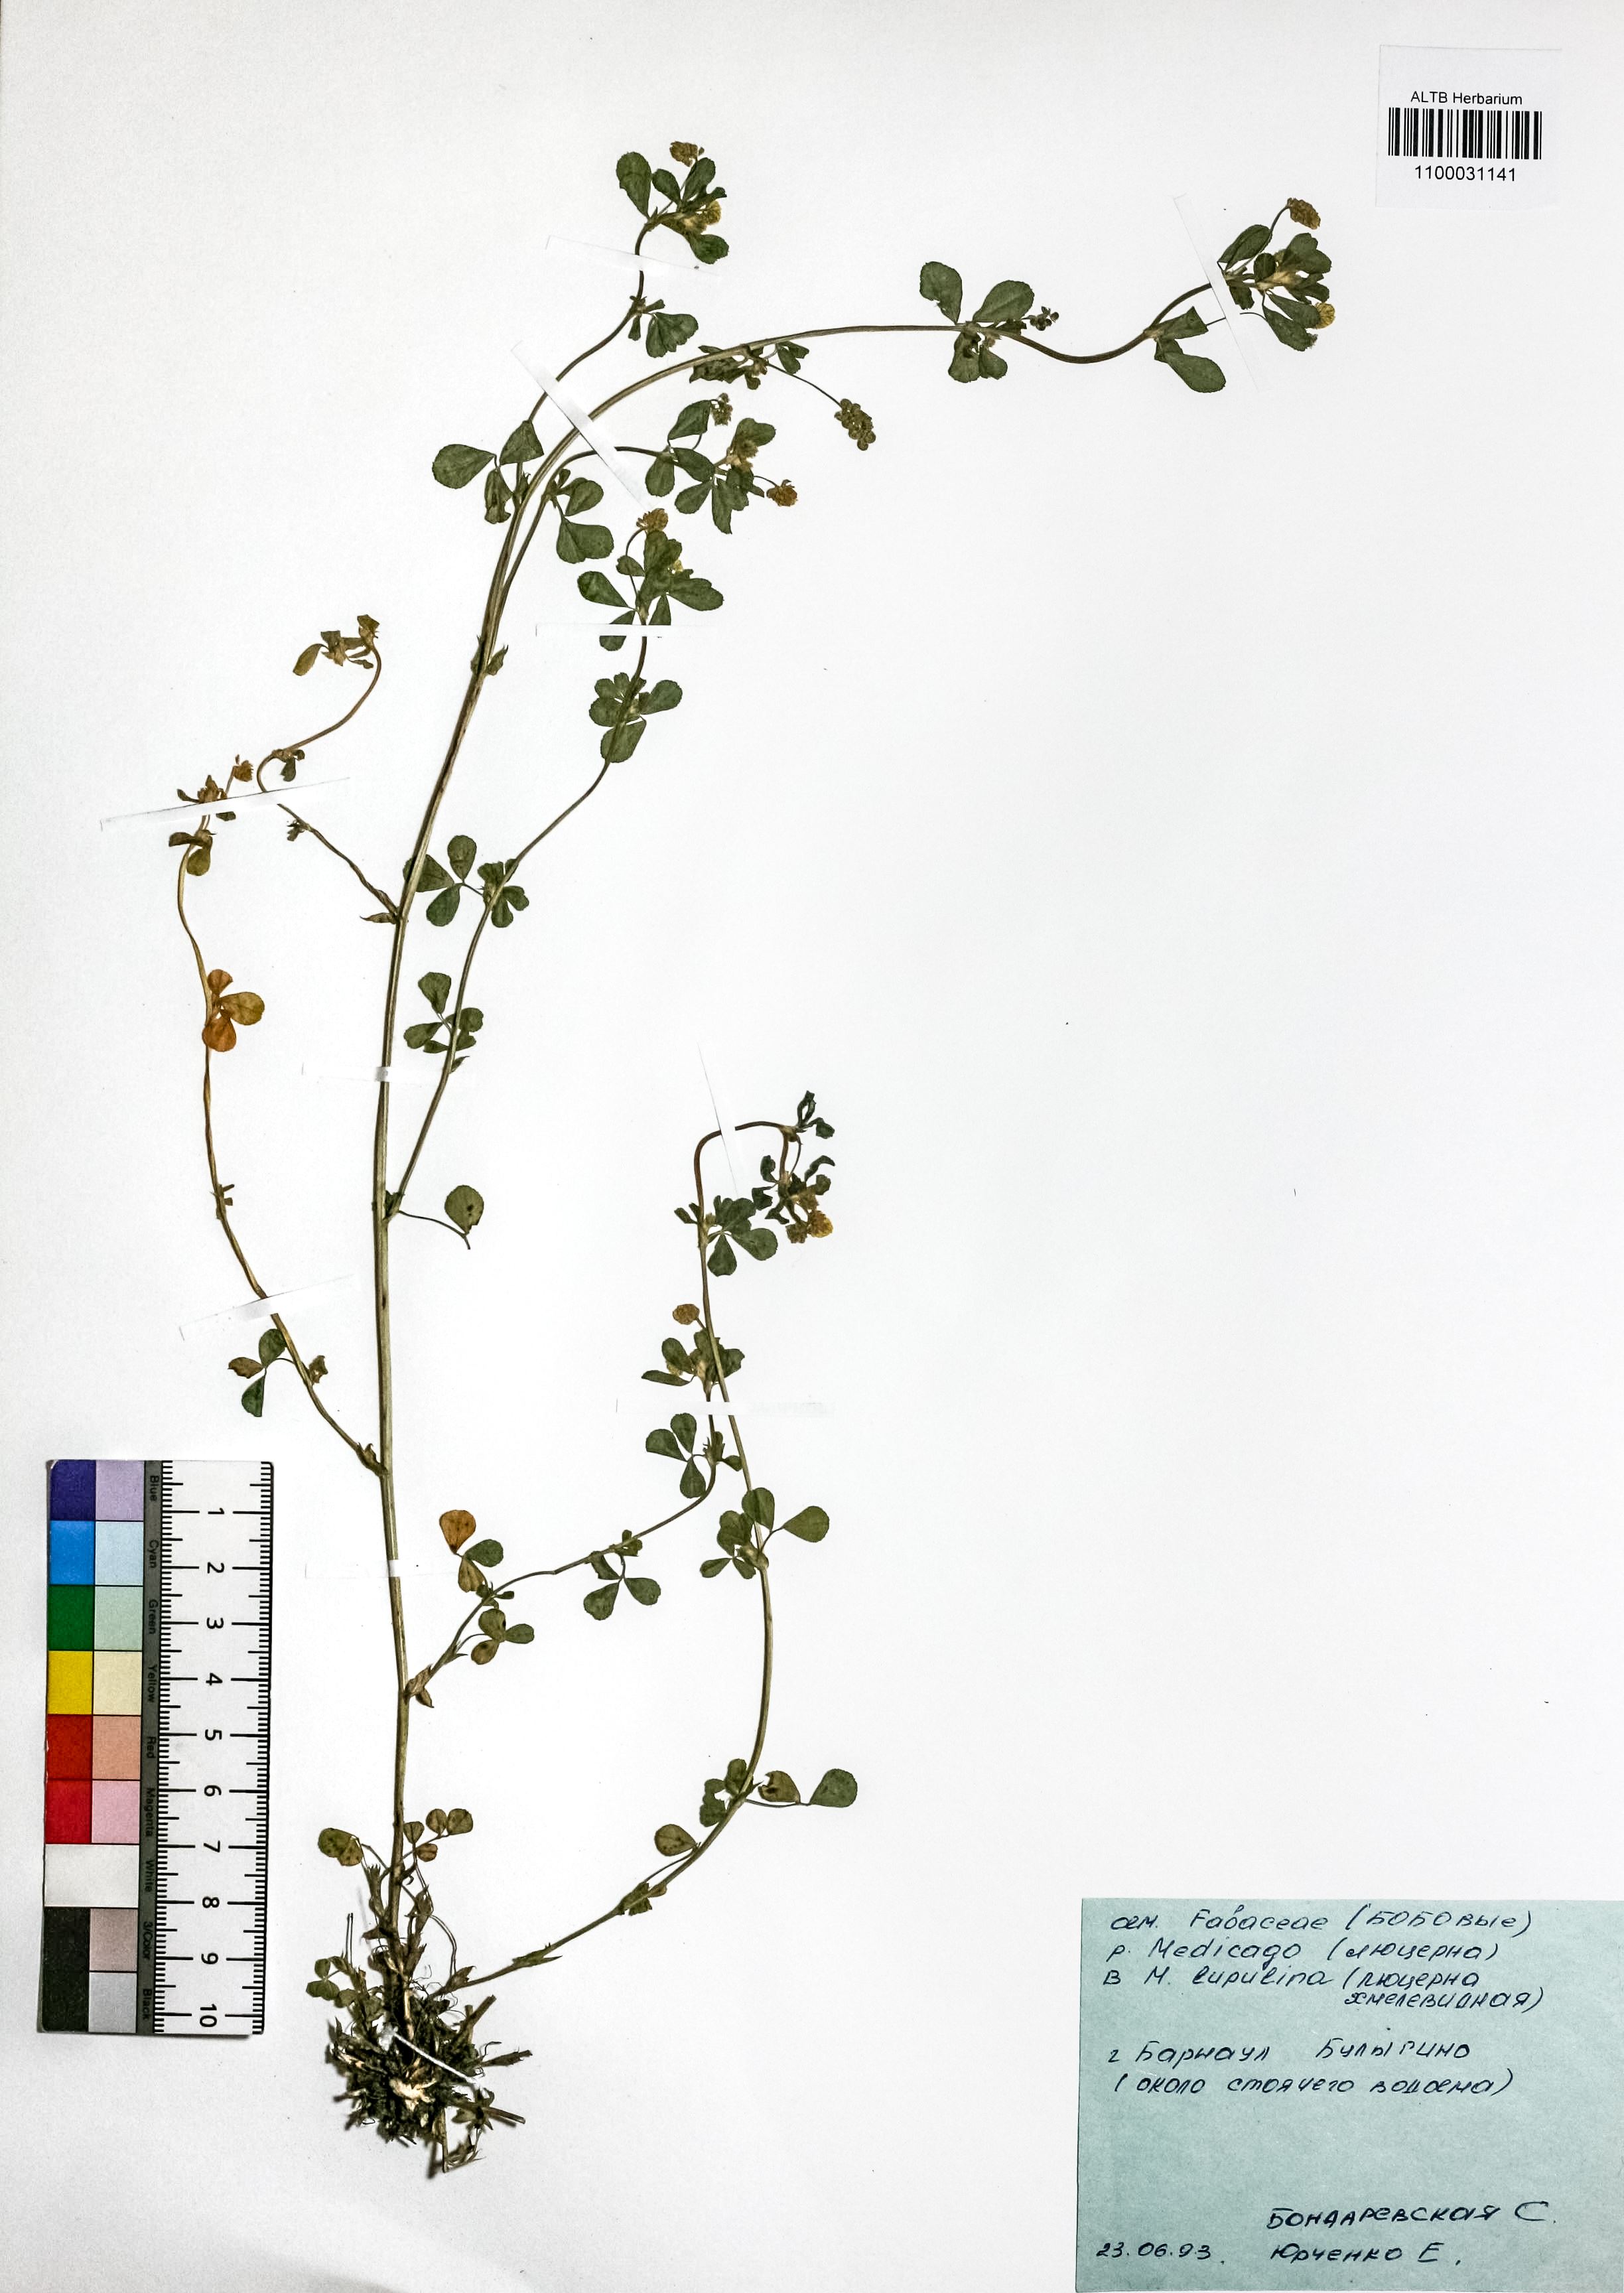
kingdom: Plantae
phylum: Tracheophyta
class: Magnoliopsida
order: Fabales
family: Fabaceae
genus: Medicago
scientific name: Medicago lupulina
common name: Black medick
